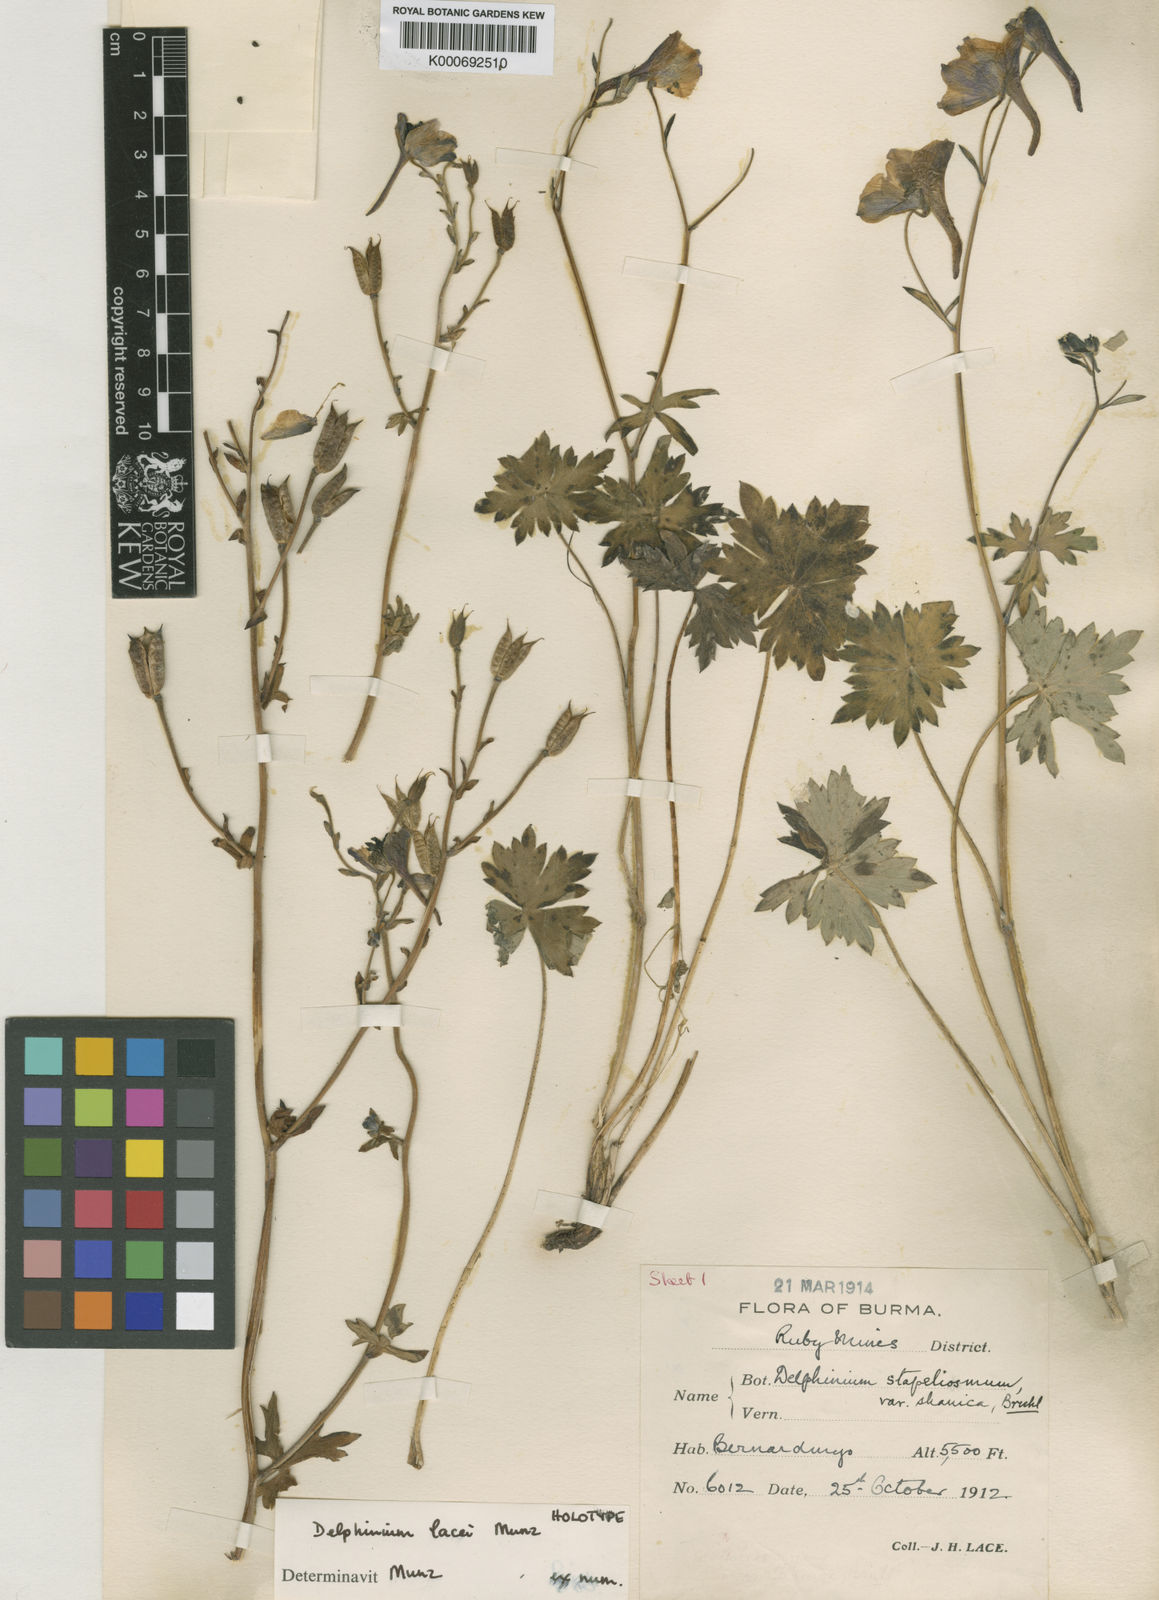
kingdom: Plantae
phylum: Tracheophyta
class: Magnoliopsida
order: Ranunculales
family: Ranunculaceae
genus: Delphinium
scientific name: Delphinium lacei
